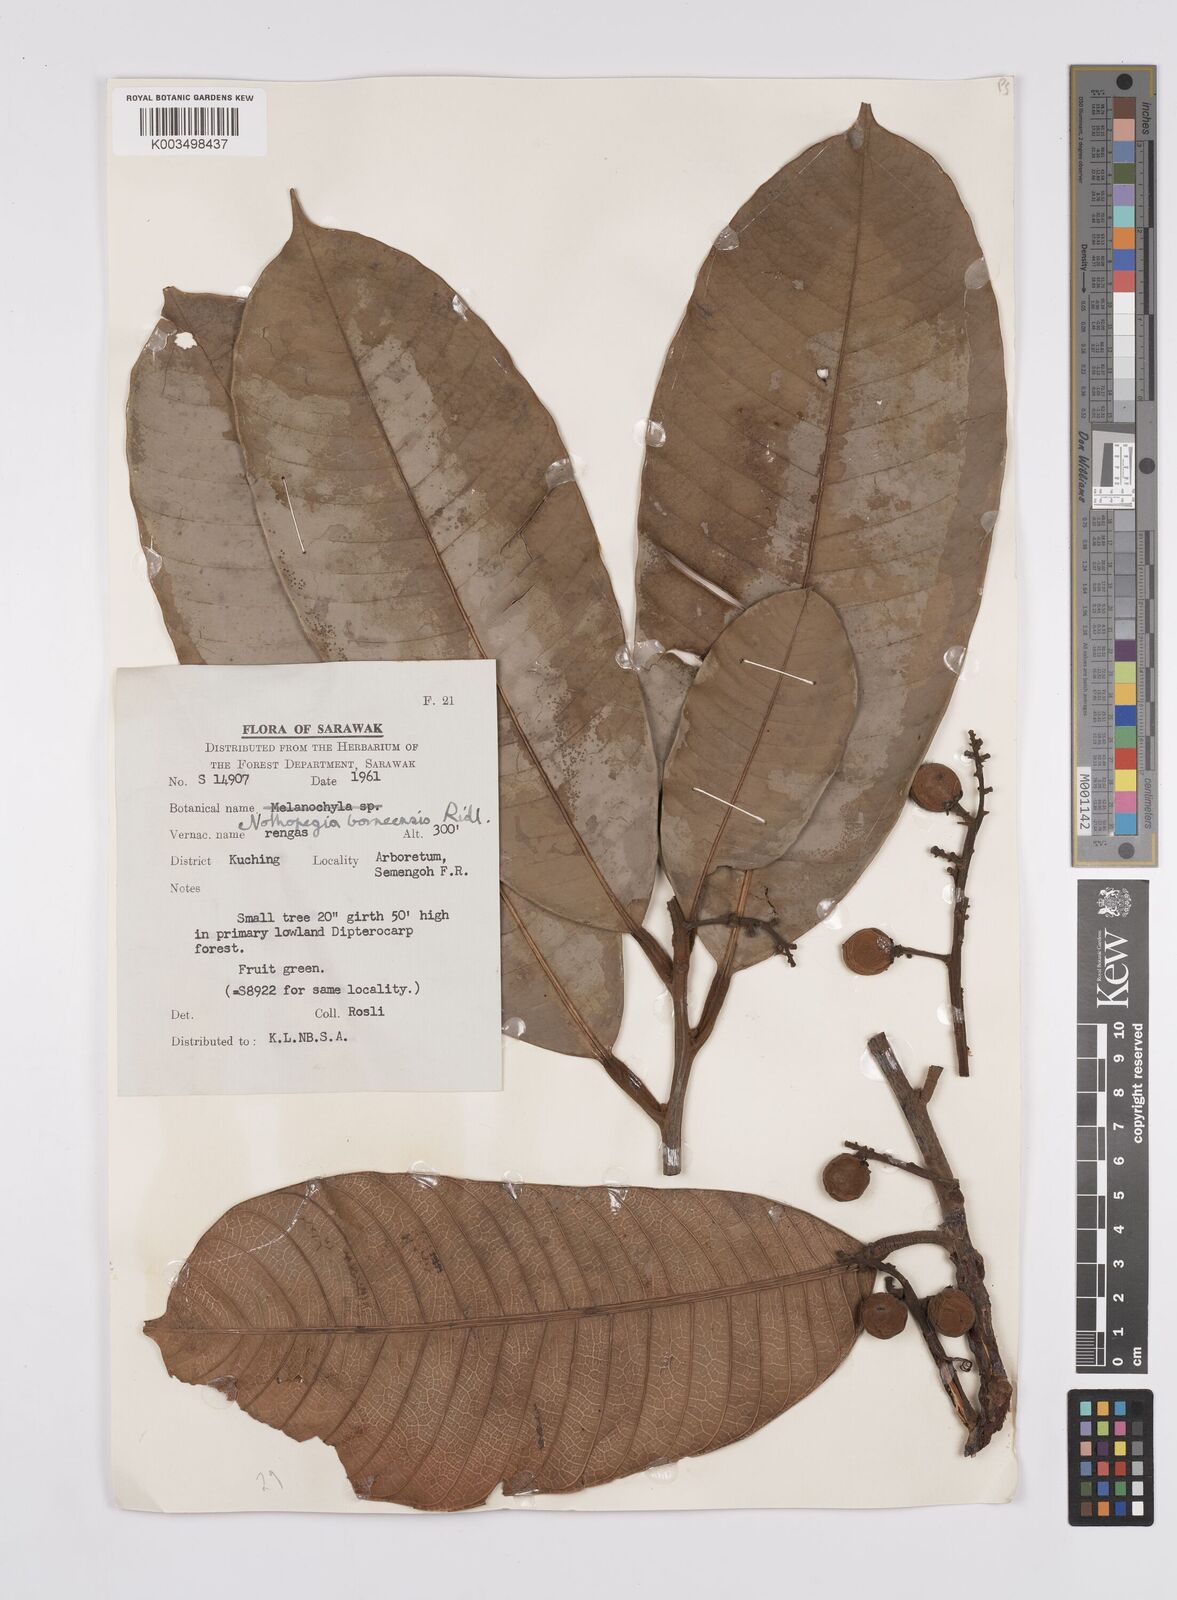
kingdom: Plantae
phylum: Tracheophyta
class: Magnoliopsida
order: Sapindales
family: Anacardiaceae
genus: Melanochyla
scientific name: Melanochyla borneensis
